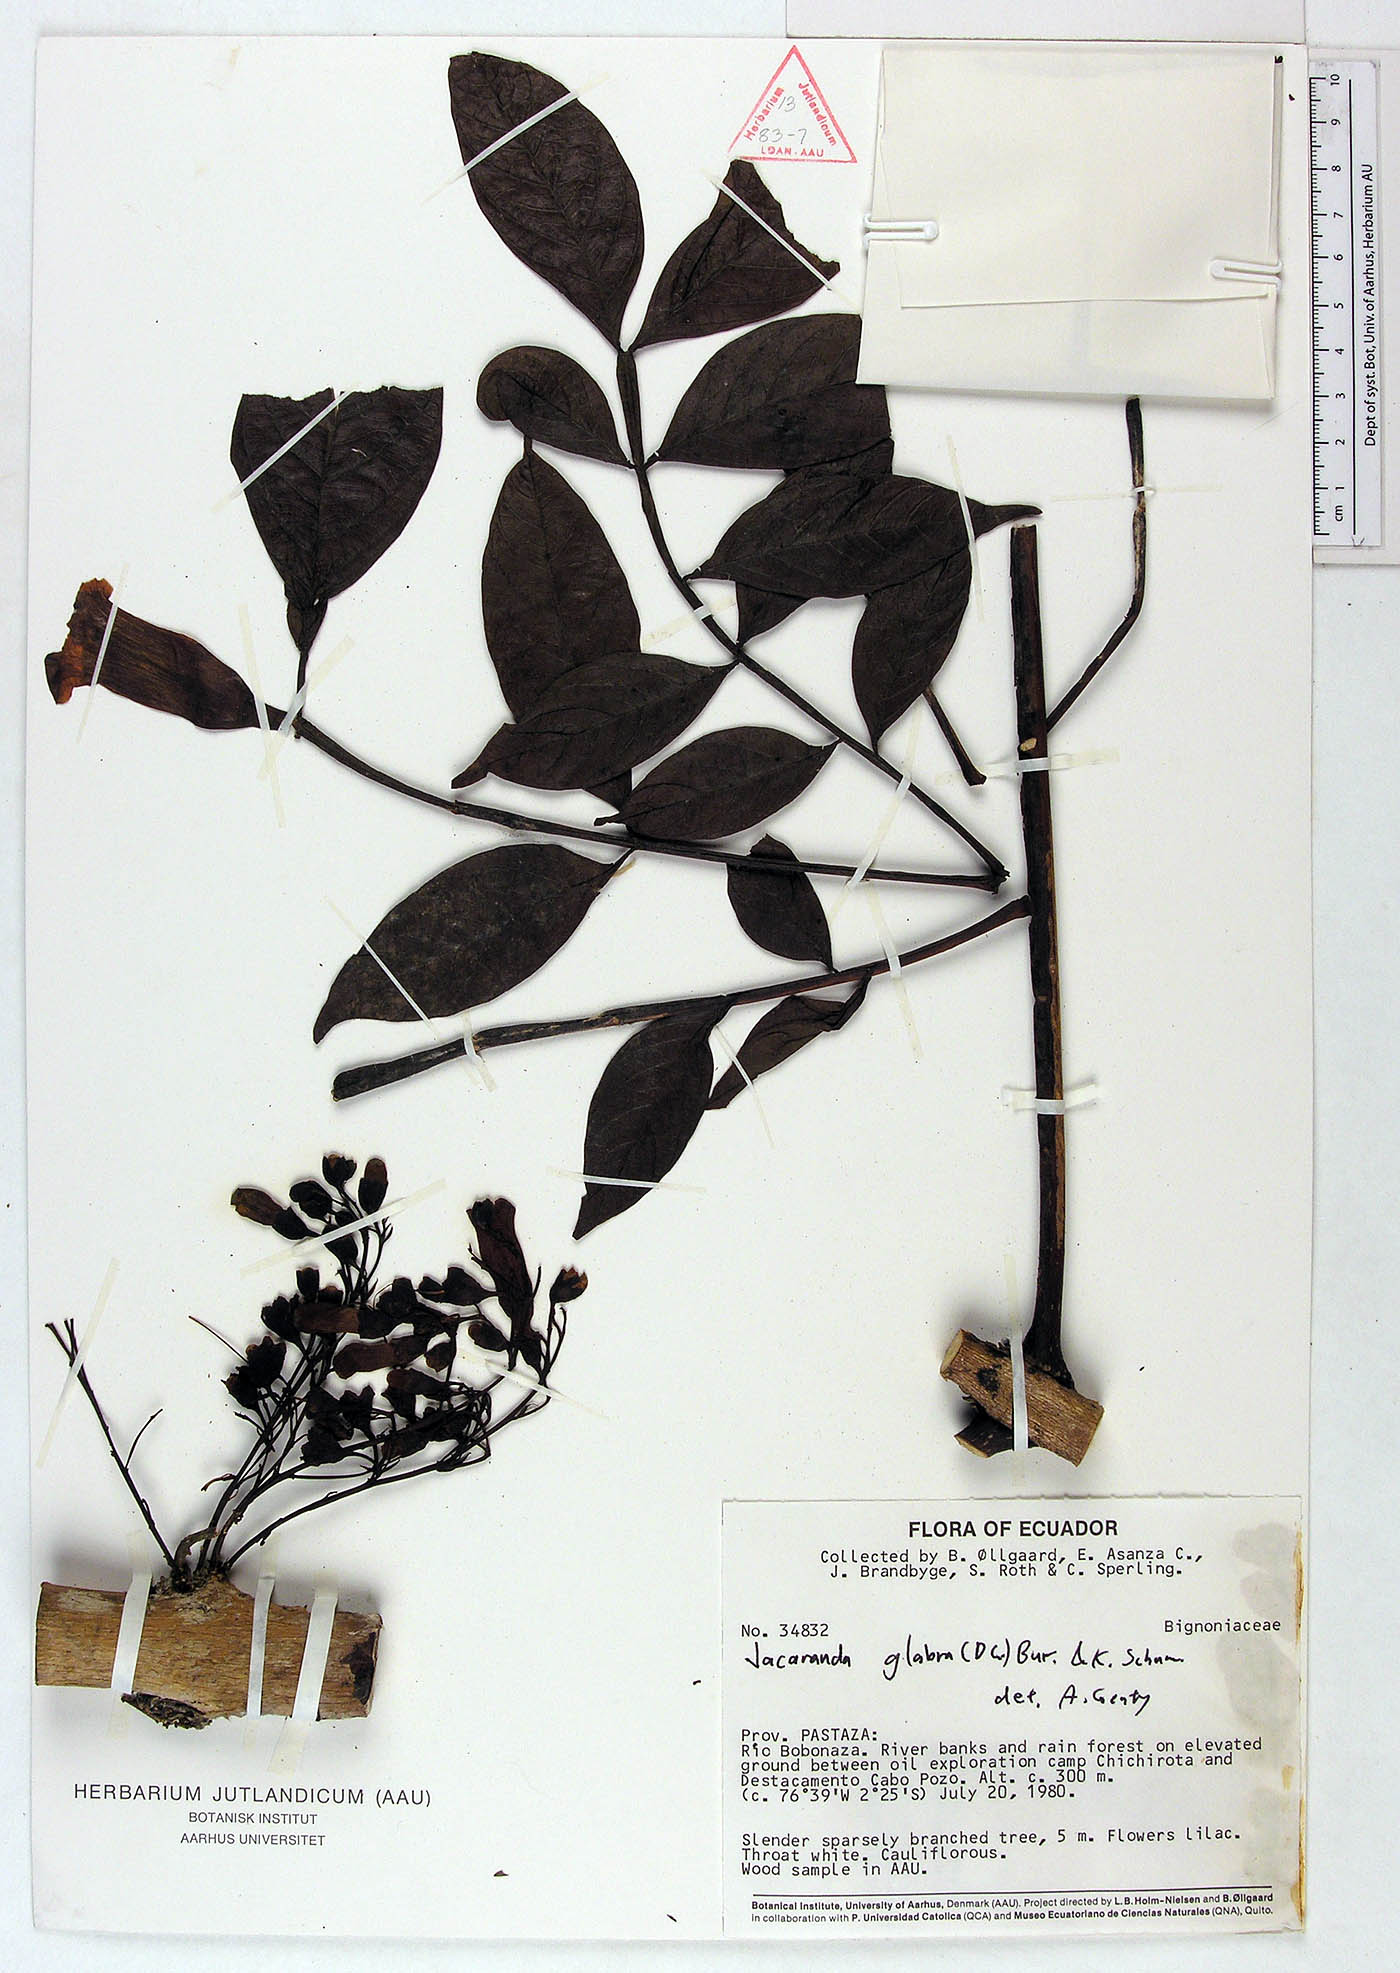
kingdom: Plantae
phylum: Tracheophyta
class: Magnoliopsida
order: Lamiales
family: Bignoniaceae
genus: Jacaranda
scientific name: Jacaranda glabra
